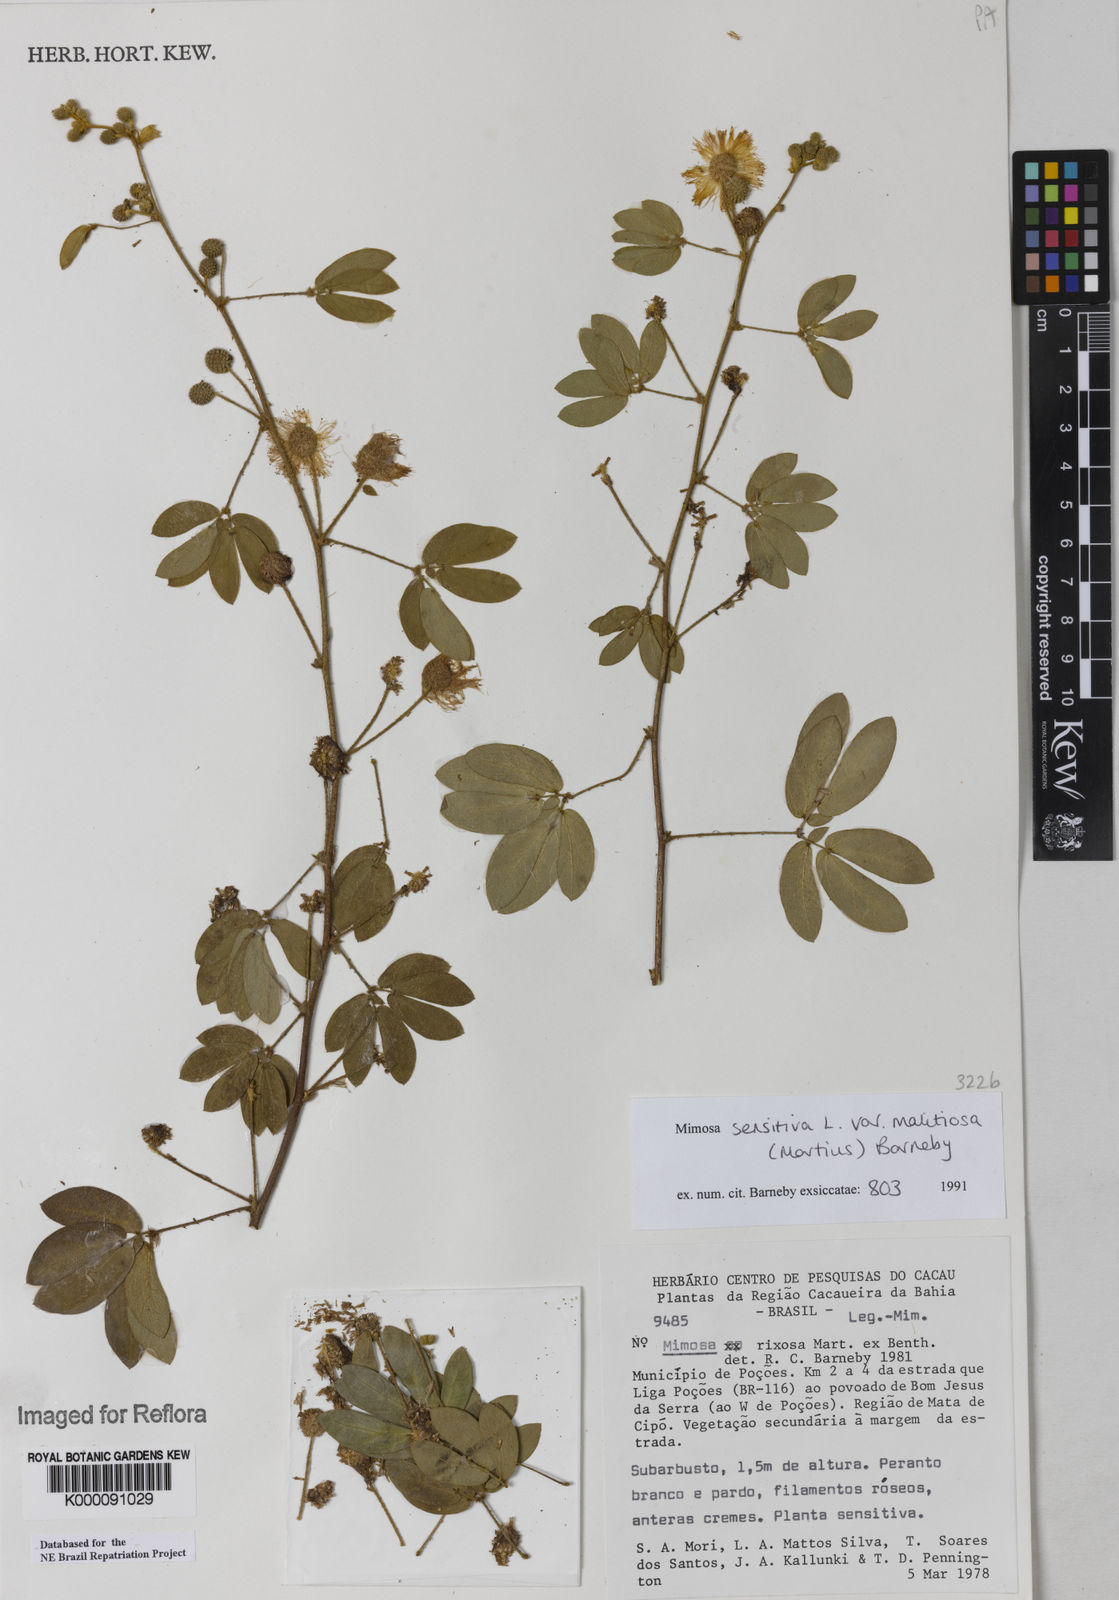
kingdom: Plantae
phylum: Tracheophyta
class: Magnoliopsida
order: Fabales
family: Fabaceae
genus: Mimosa
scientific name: Mimosa sensitiva
